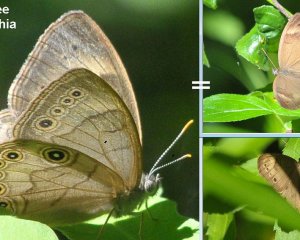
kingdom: Animalia
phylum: Arthropoda
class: Insecta
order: Lepidoptera
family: Nymphalidae
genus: Lethe
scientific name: Lethe eurydice
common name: Appalachian Eyed Brown
